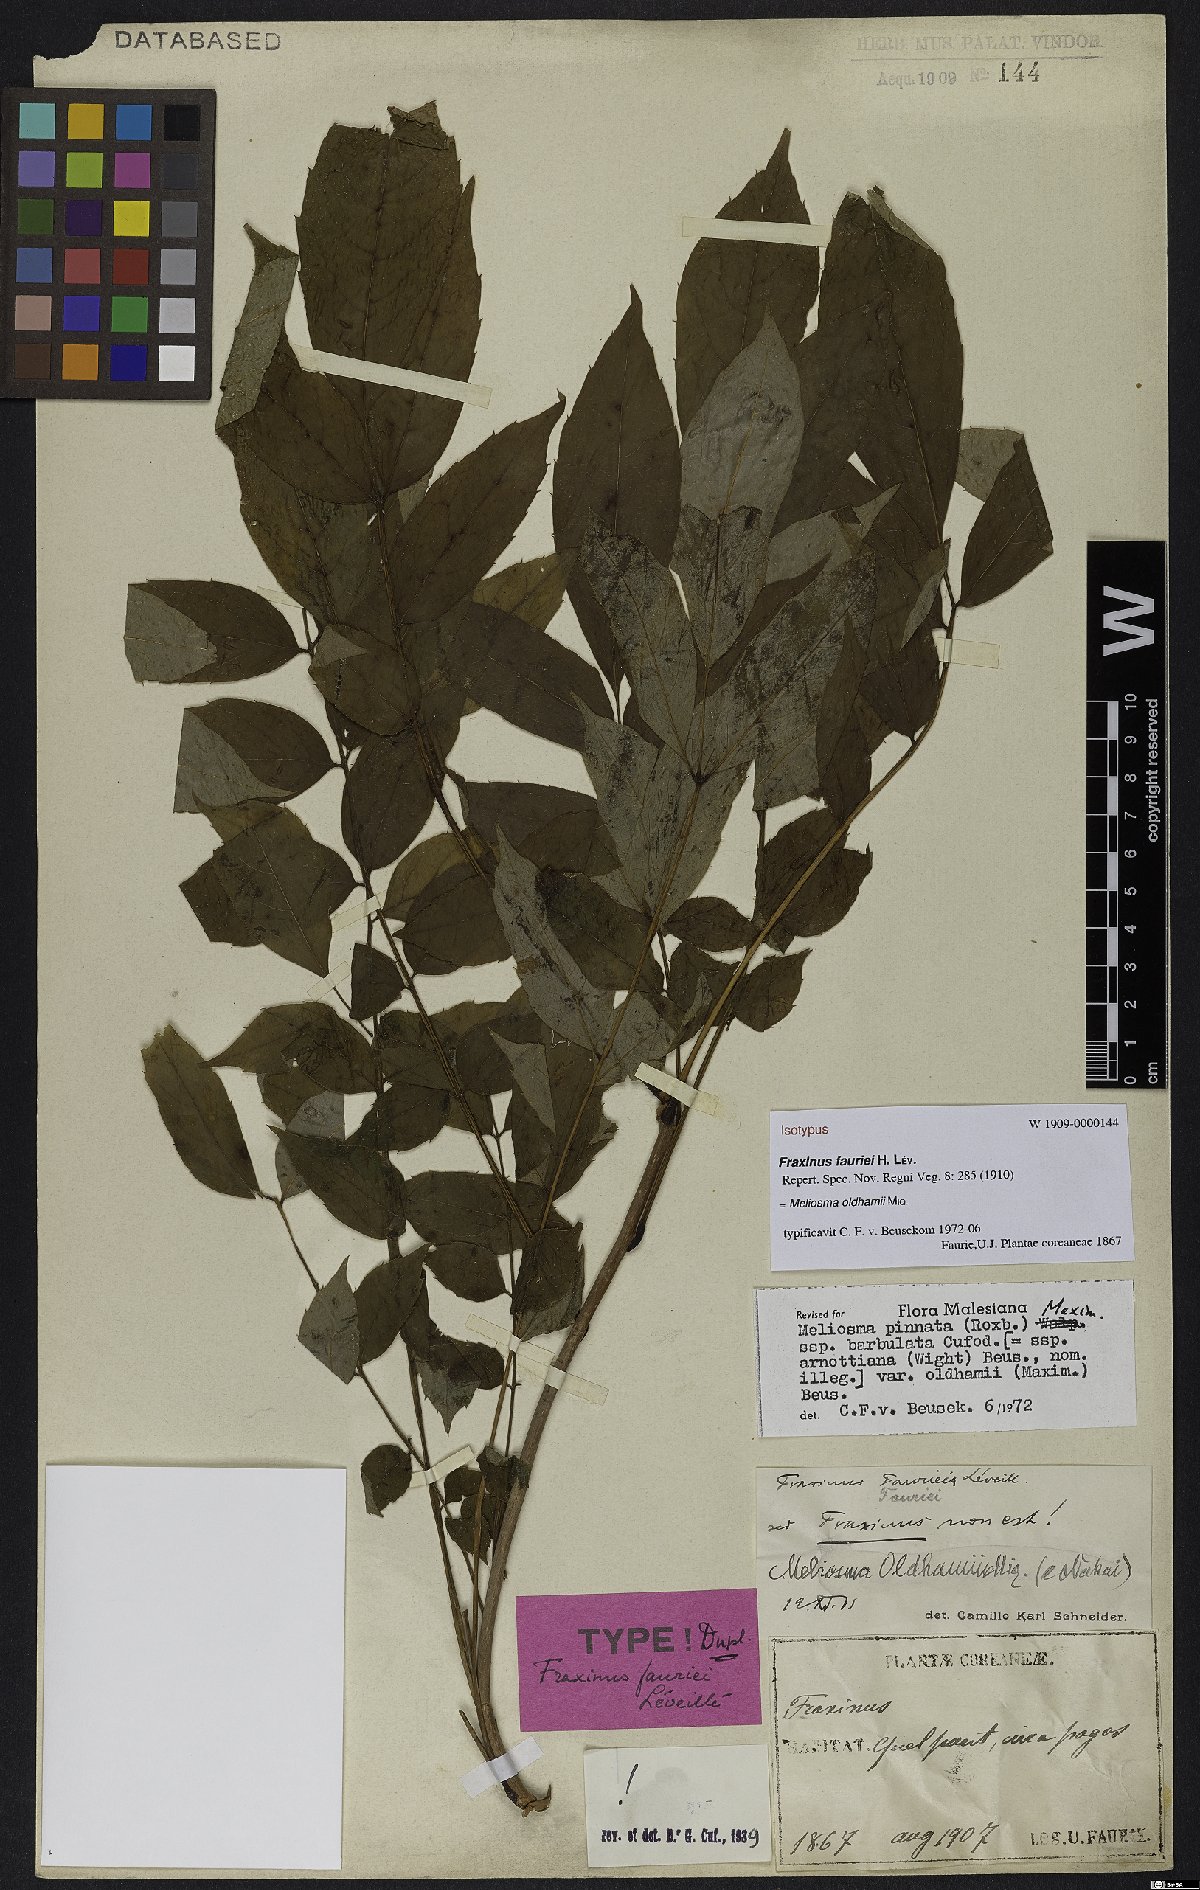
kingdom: Plantae
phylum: Tracheophyta
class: Magnoliopsida
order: Proteales
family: Sabiaceae
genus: Meliosma
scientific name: Meliosma oldhamii
